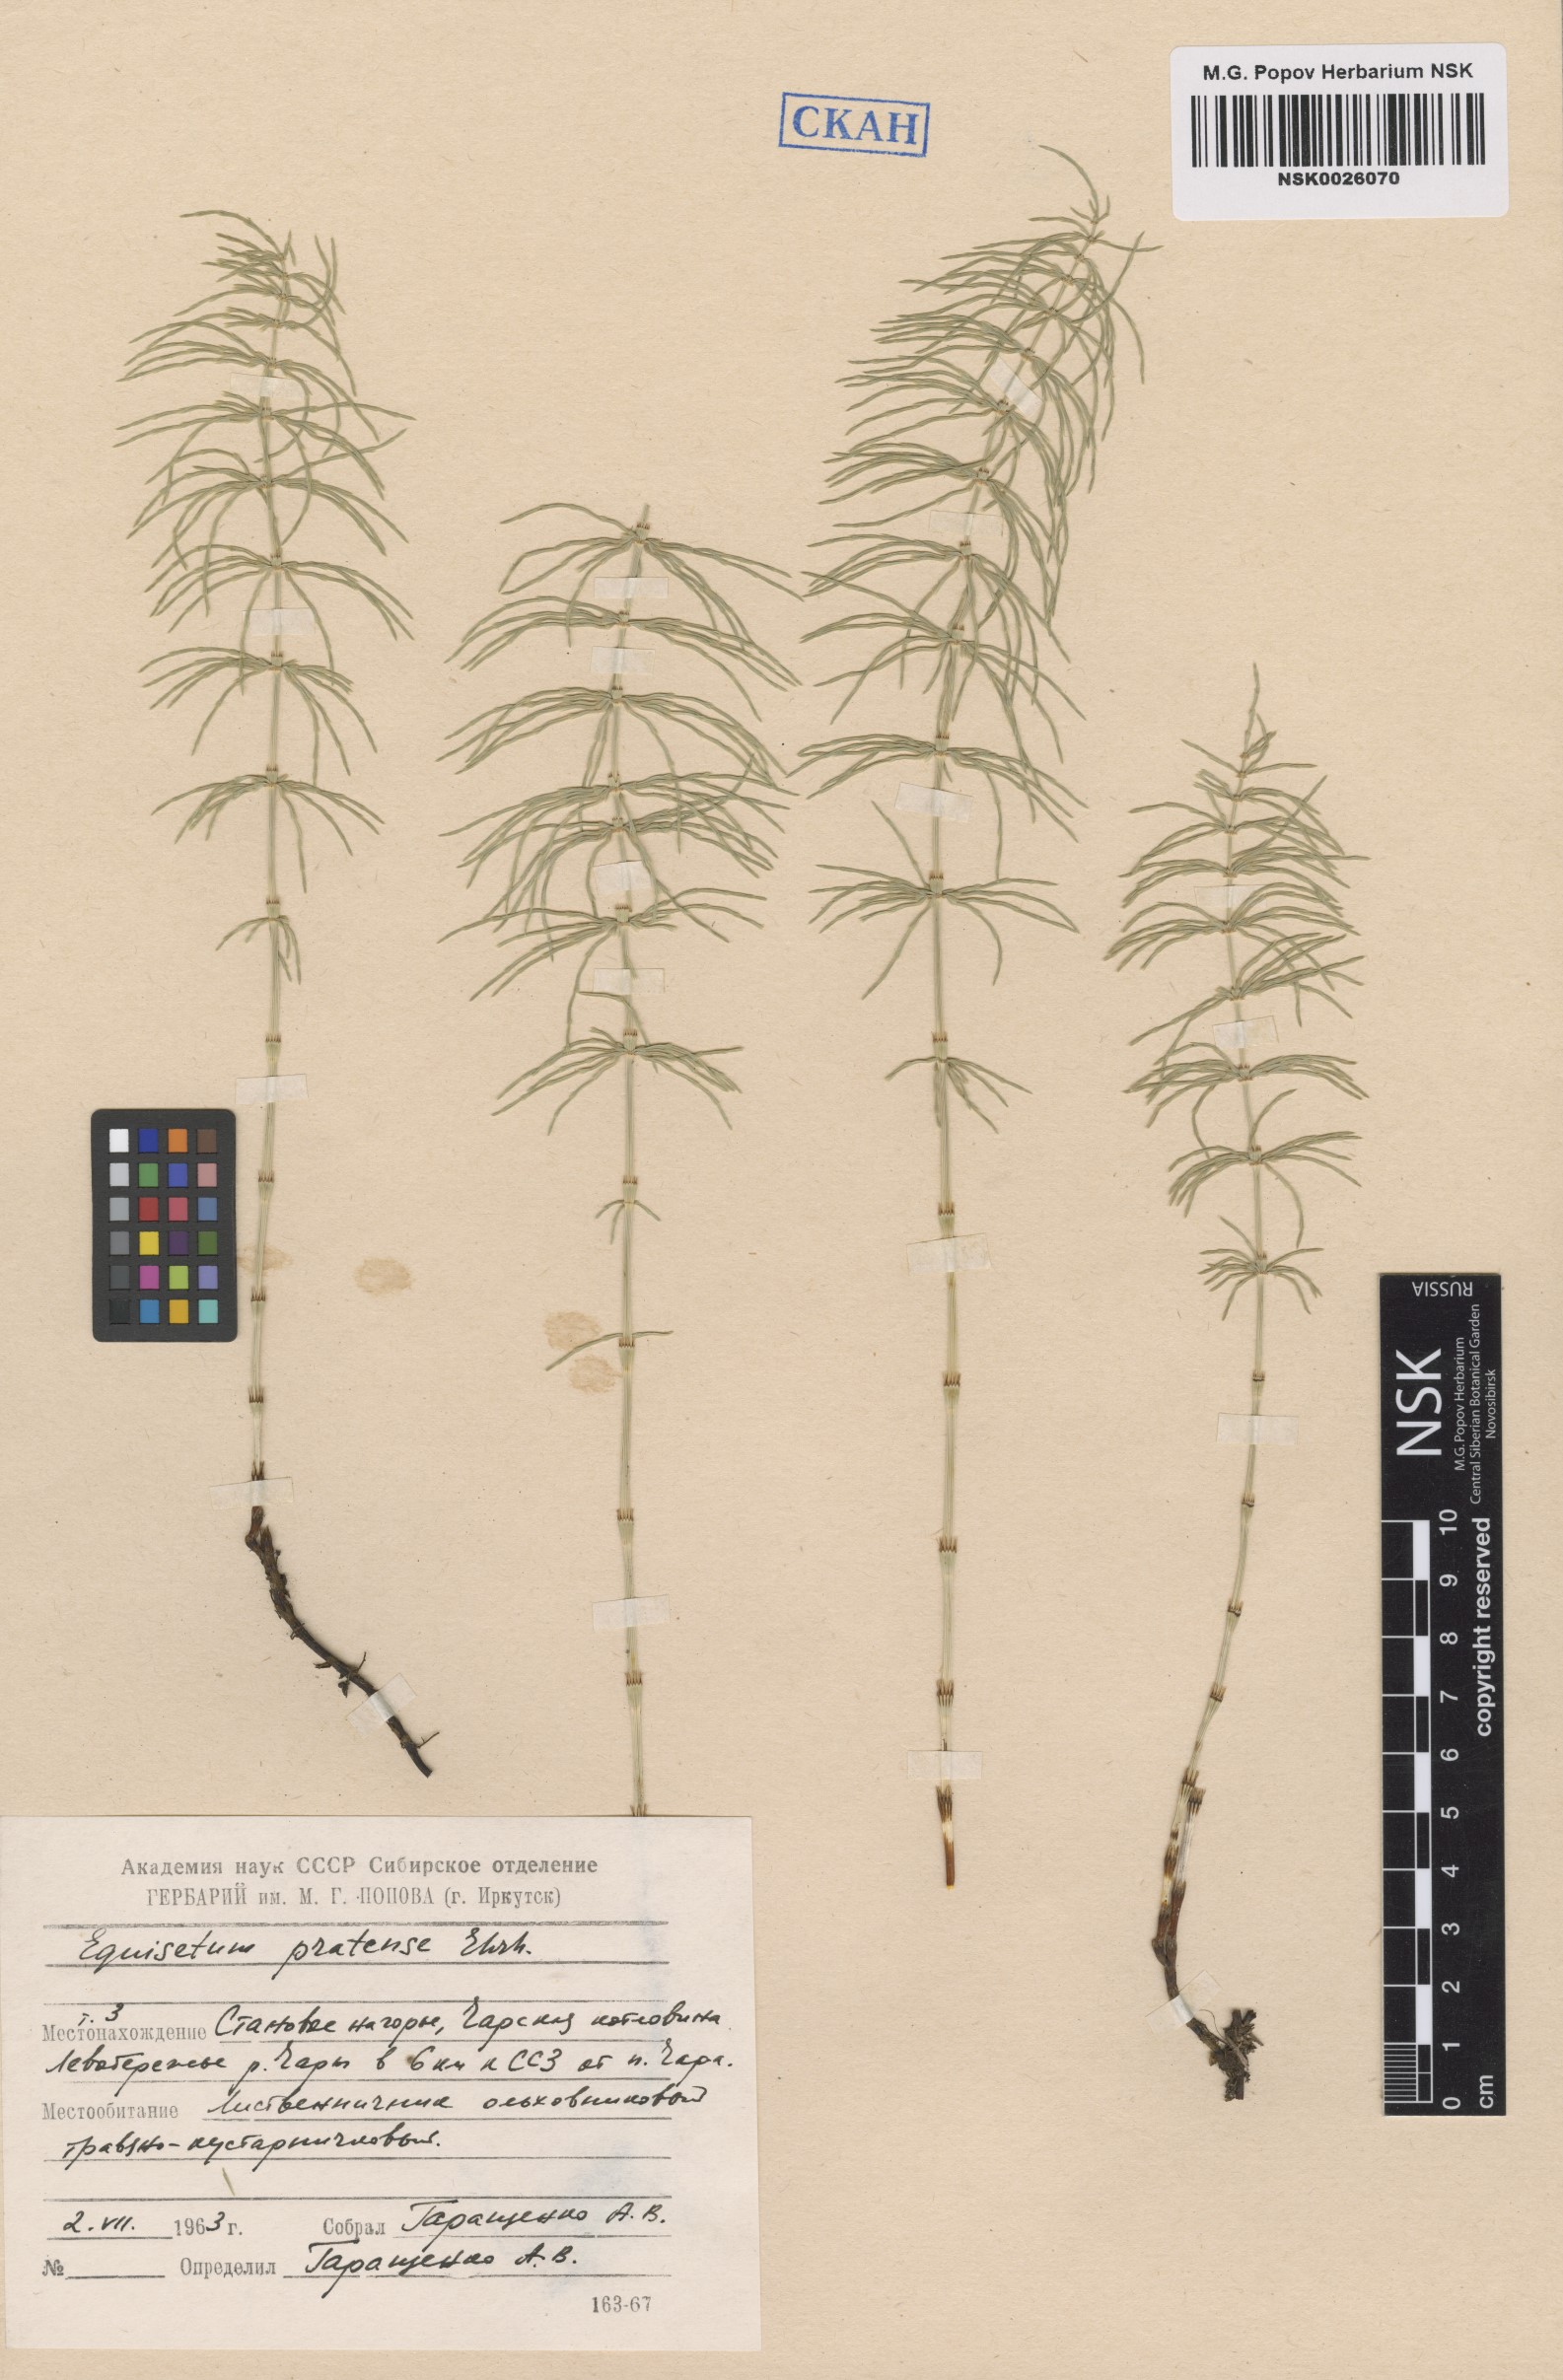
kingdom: Plantae
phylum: Tracheophyta
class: Polypodiopsida
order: Equisetales
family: Equisetaceae
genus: Equisetum
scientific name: Equisetum pratense
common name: Meadow horsetail
